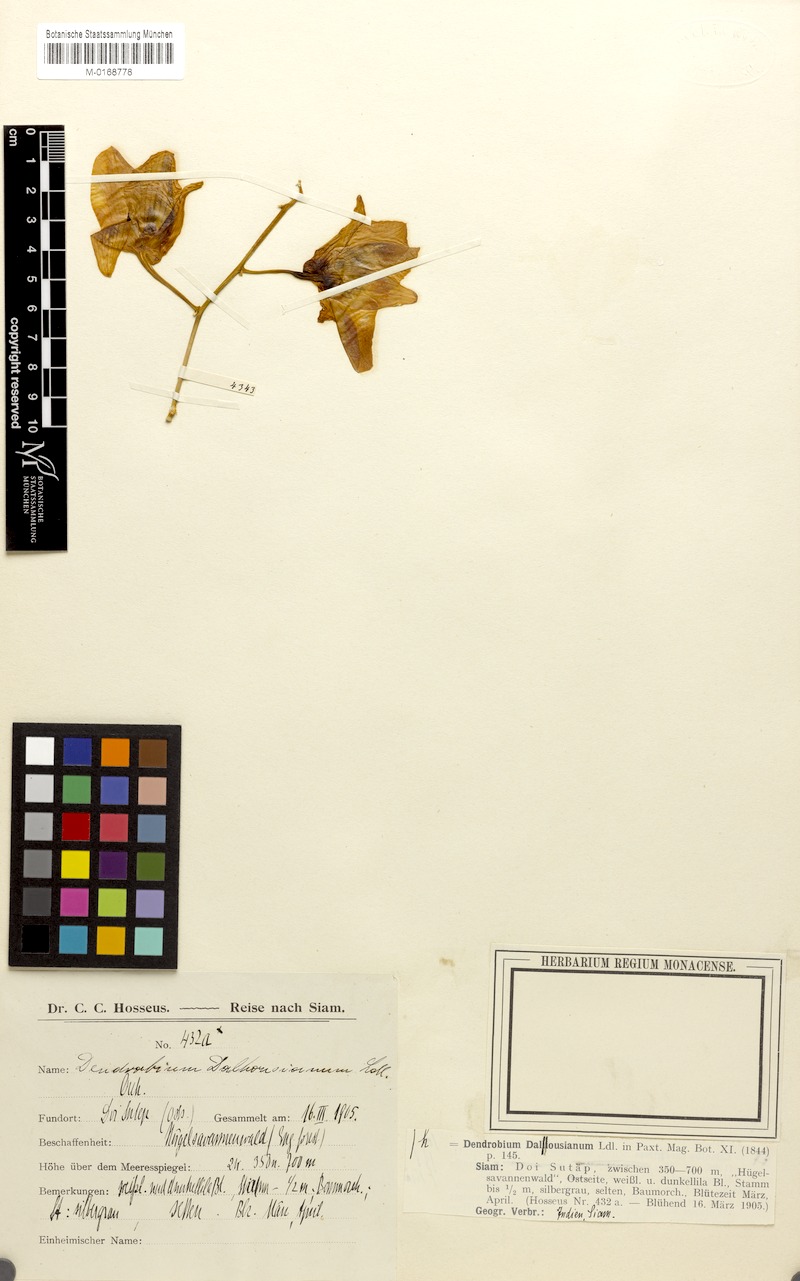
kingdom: Plantae
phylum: Tracheophyta
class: Liliopsida
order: Asparagales
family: Orchidaceae
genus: Dendrobium
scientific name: Dendrobium pulchellum
